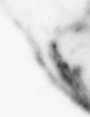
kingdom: Animalia
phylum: Chaetognatha
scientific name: Chaetognatha
